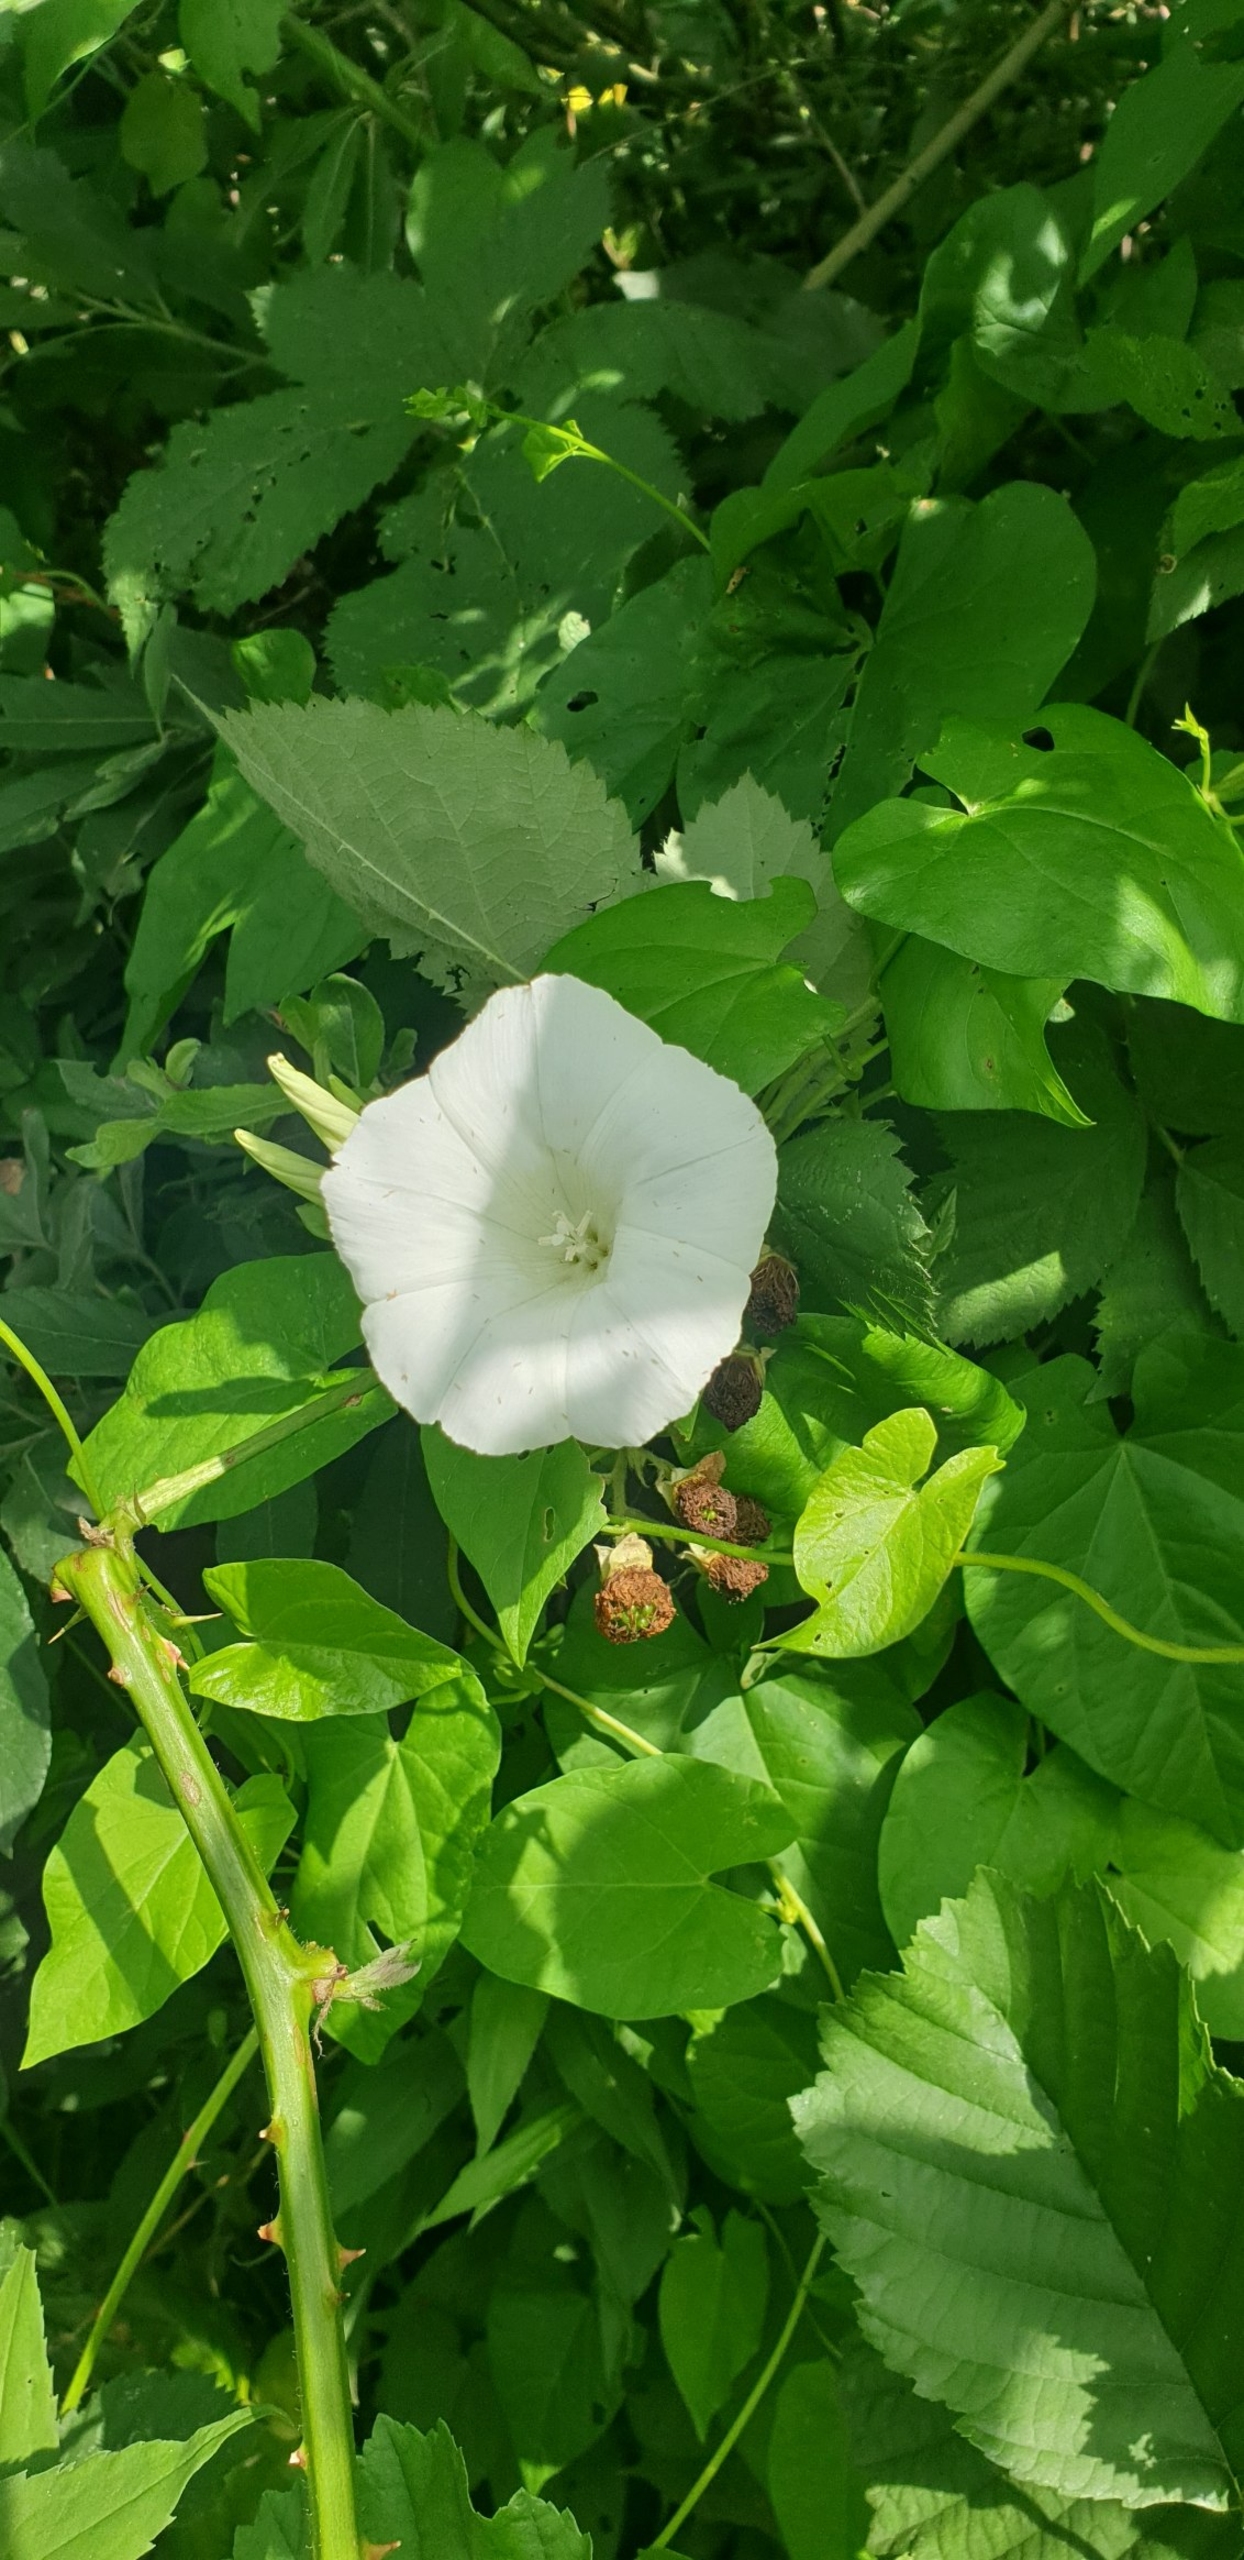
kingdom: Plantae
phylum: Tracheophyta
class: Magnoliopsida
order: Solanales
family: Convolvulaceae
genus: Calystegia
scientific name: Calystegia sepium
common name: Gærde-snerle (underart)
